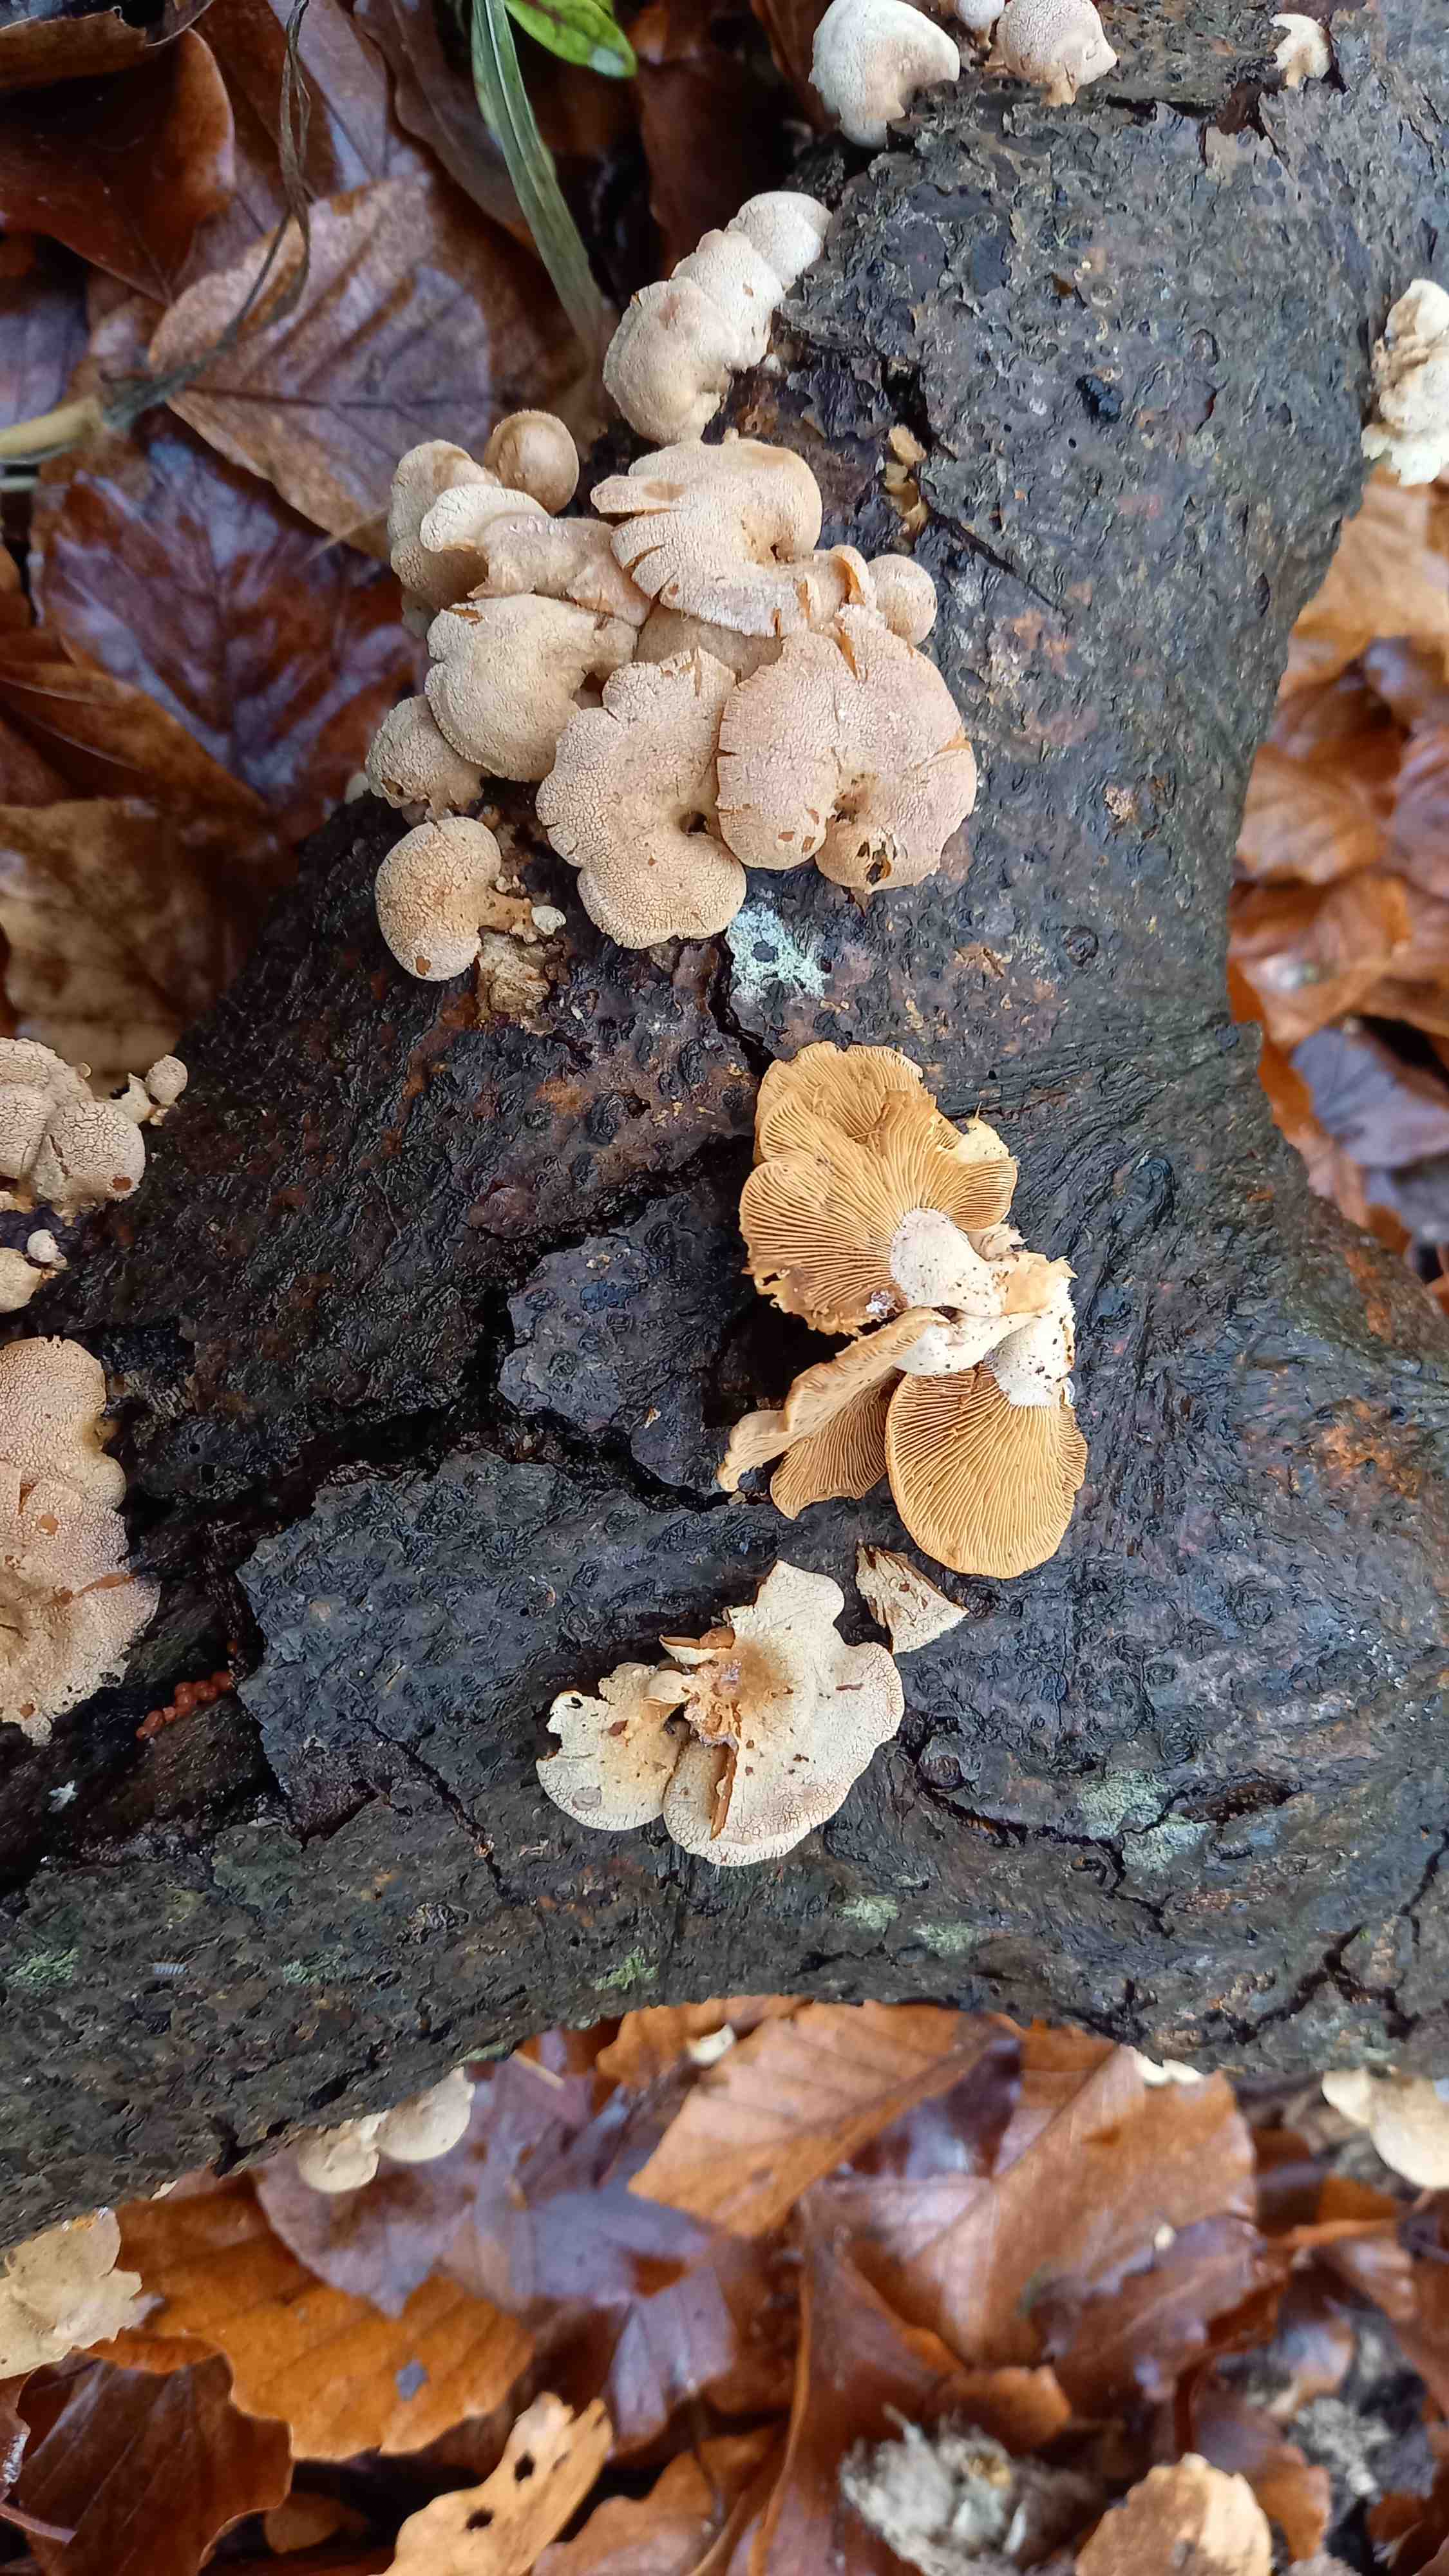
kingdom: Fungi
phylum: Basidiomycota
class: Agaricomycetes
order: Agaricales
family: Mycenaceae
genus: Panellus
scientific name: Panellus stipticus
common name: kliddet epaulethat
